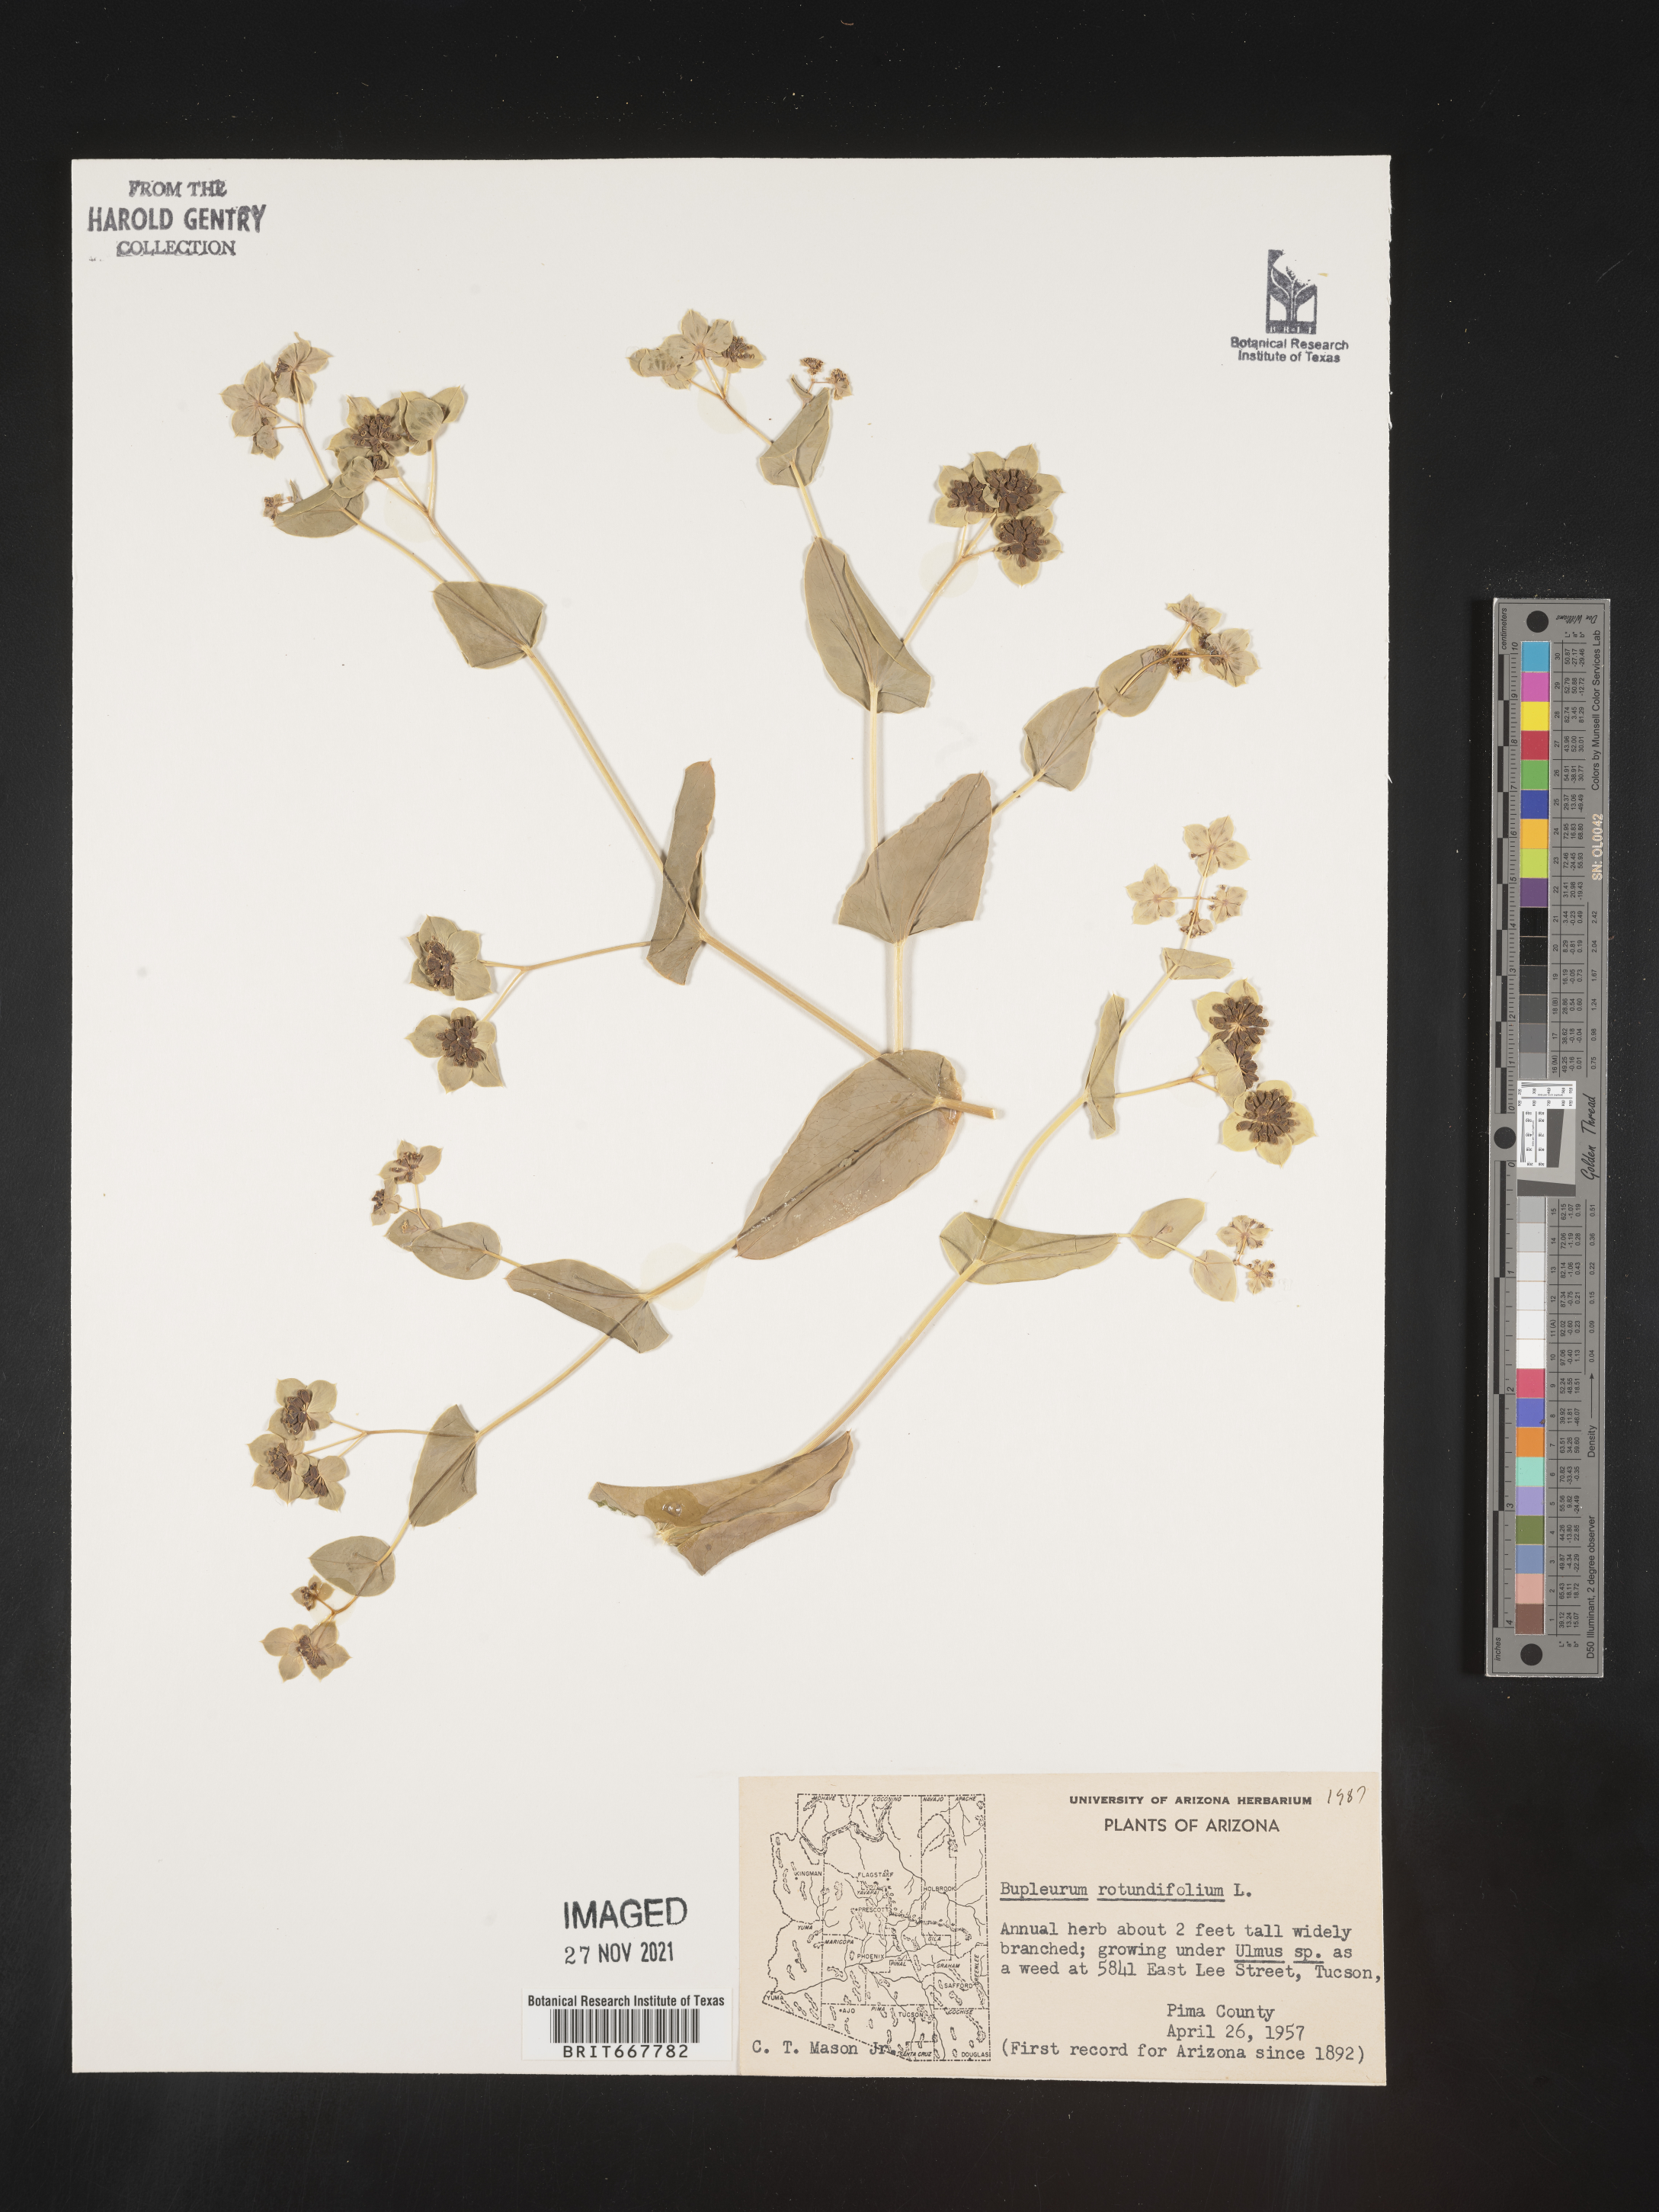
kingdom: Plantae
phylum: Tracheophyta
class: Magnoliopsida
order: Apiales
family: Apiaceae
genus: Bupleurum
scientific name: Bupleurum
